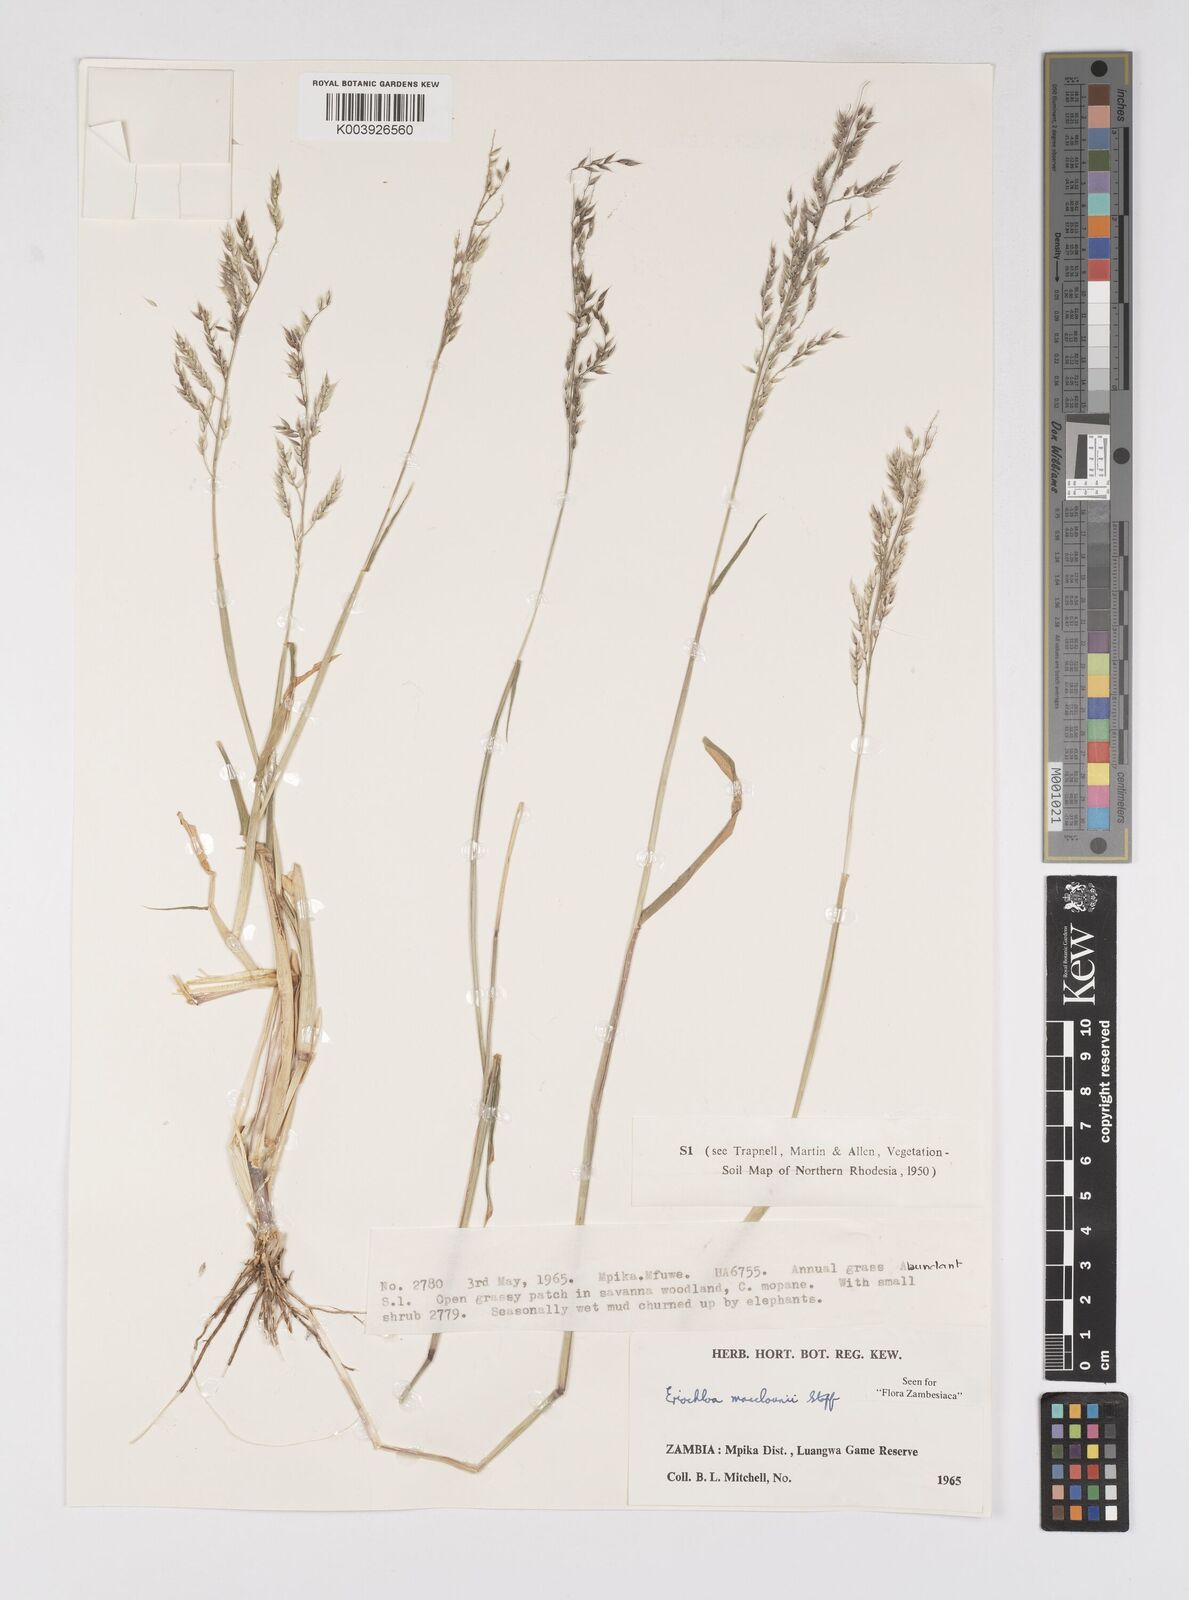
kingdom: Plantae
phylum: Tracheophyta
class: Liliopsida
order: Poales
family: Poaceae
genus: Eriochloa
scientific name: Eriochloa macclounii
